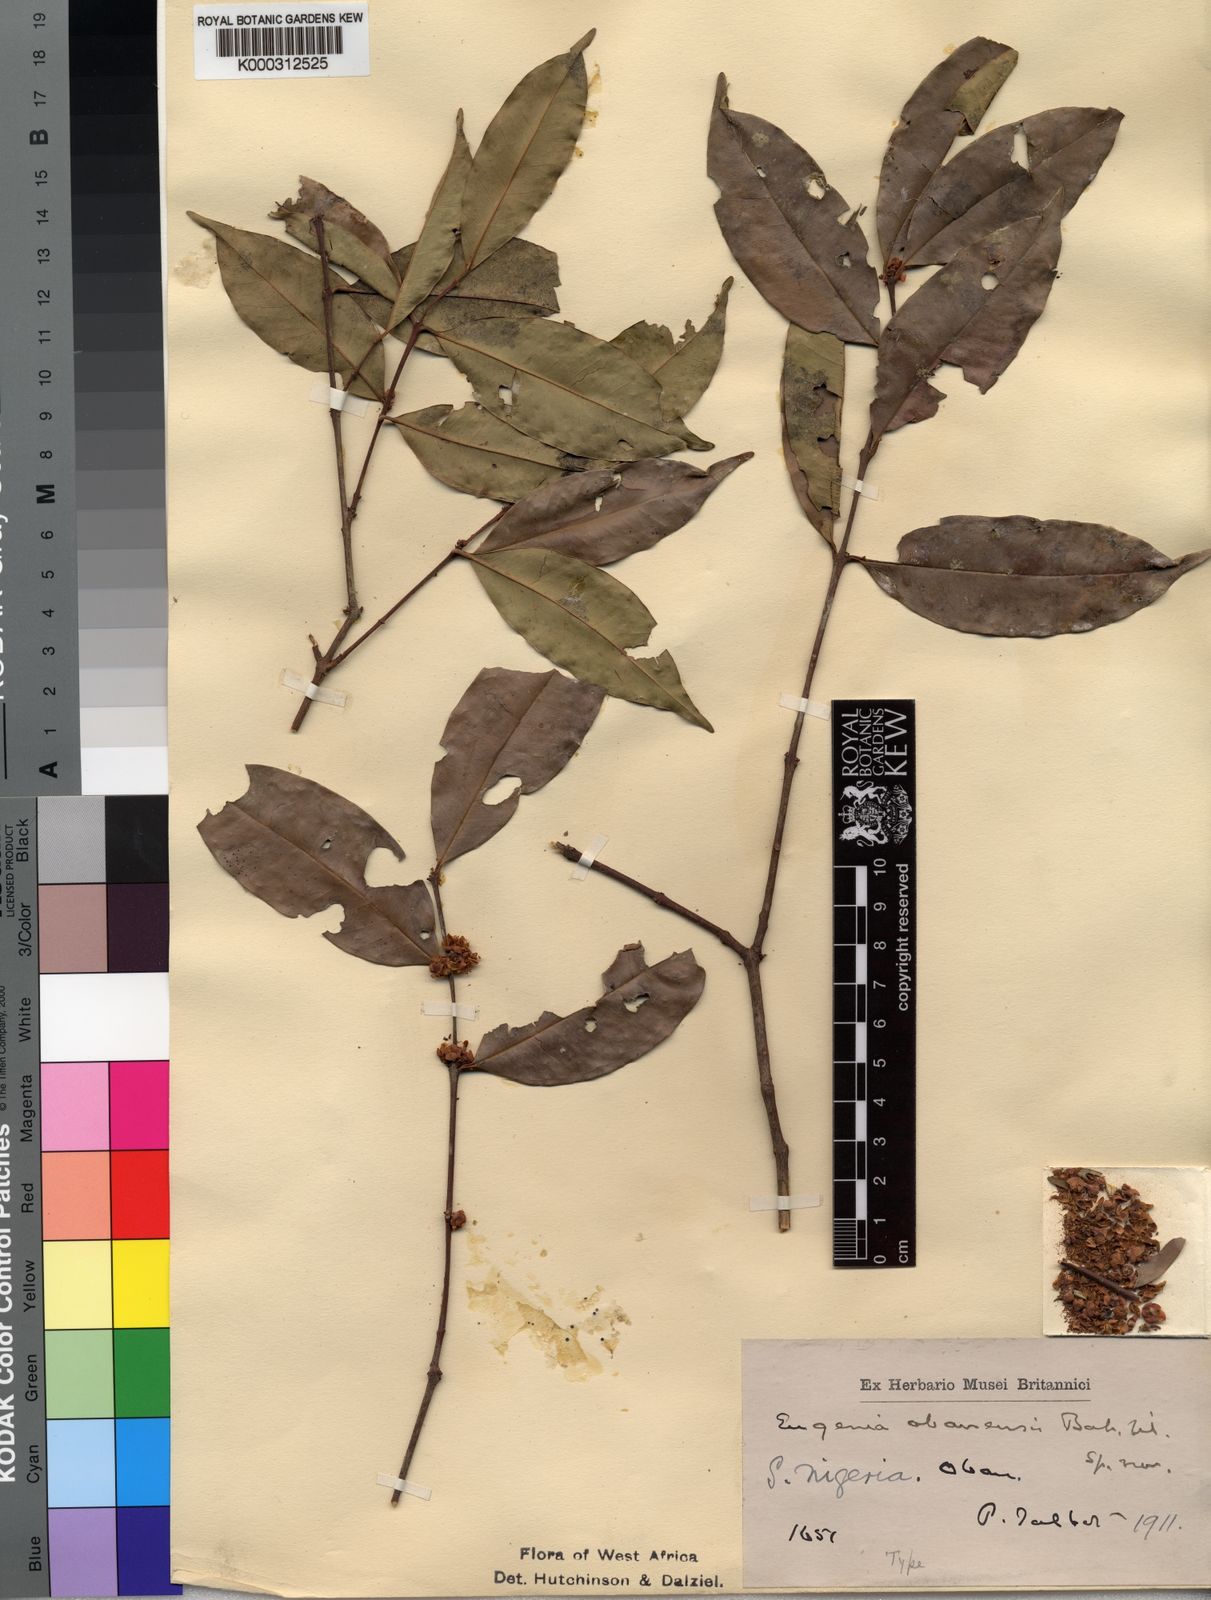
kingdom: Plantae
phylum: Tracheophyta
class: Magnoliopsida
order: Myrtales
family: Myrtaceae
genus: Eugenia
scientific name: Eugenia
